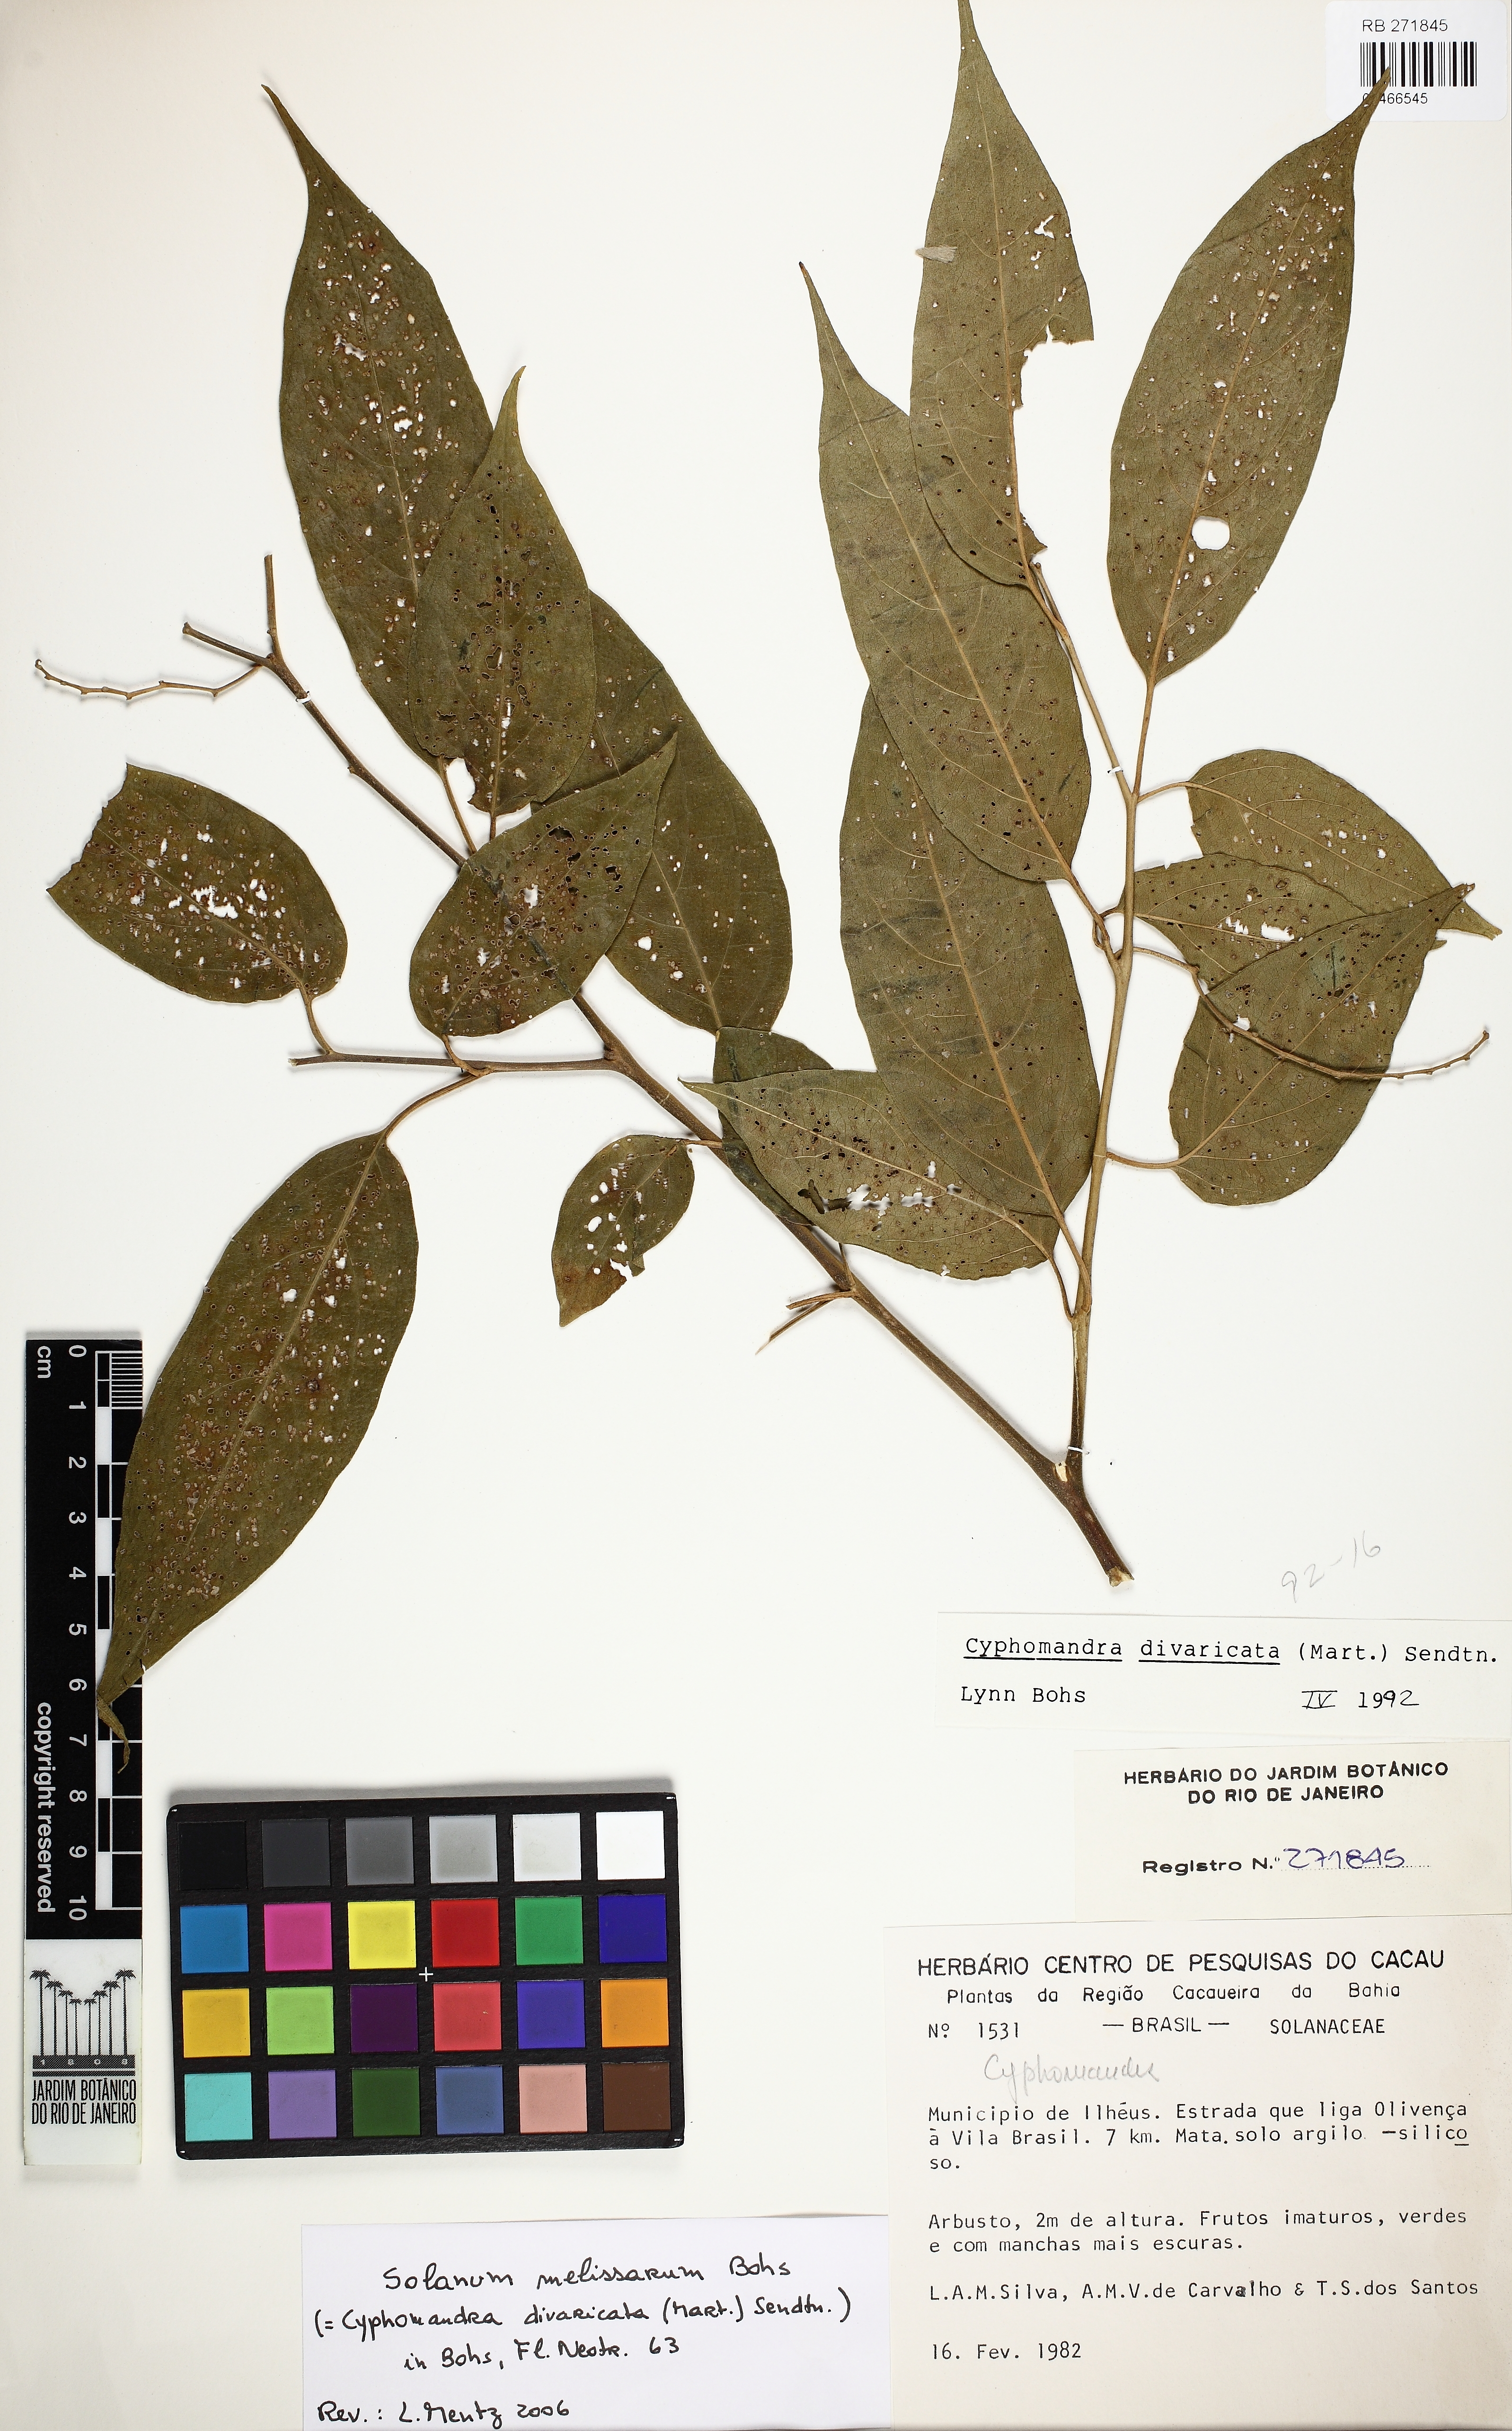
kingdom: Plantae
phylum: Tracheophyta
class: Magnoliopsida
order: Solanales
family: Solanaceae
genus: Solanum
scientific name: Solanum melissarum
